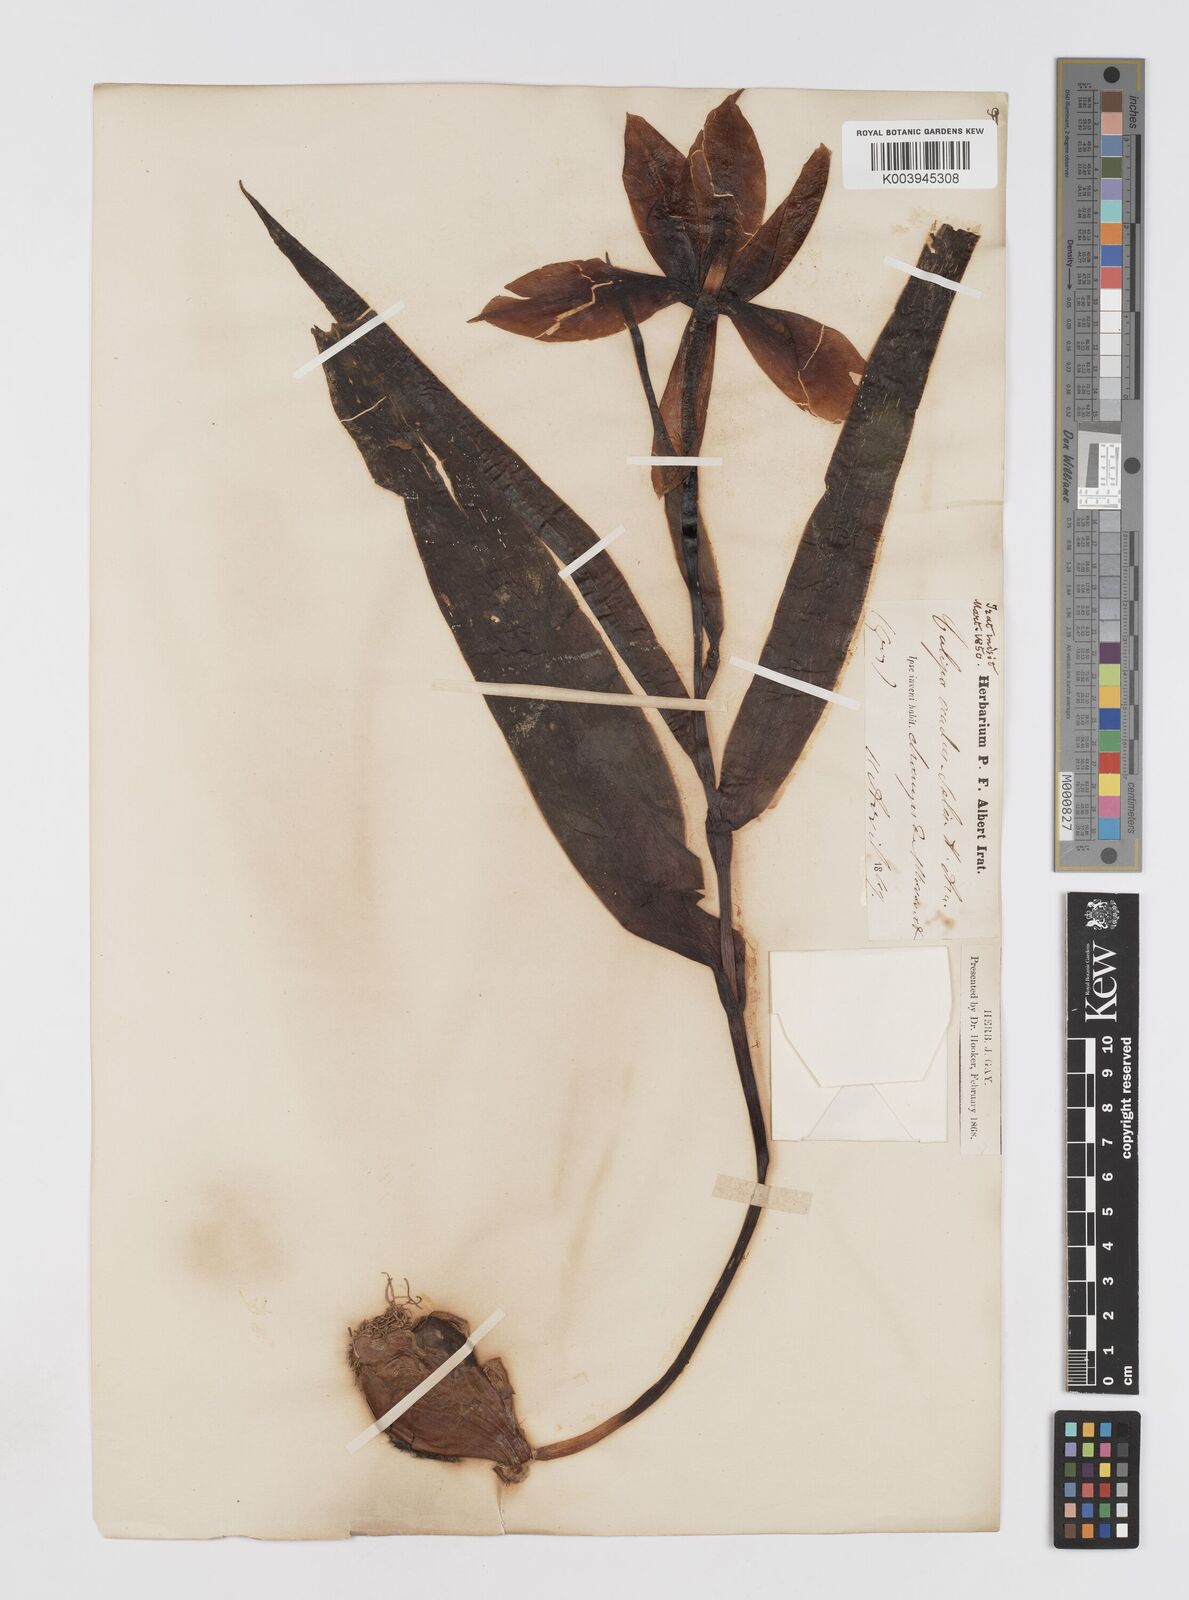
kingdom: Plantae
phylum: Tracheophyta
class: Liliopsida
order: Liliales
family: Liliaceae
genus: Tulipa
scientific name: Tulipa agenensis
